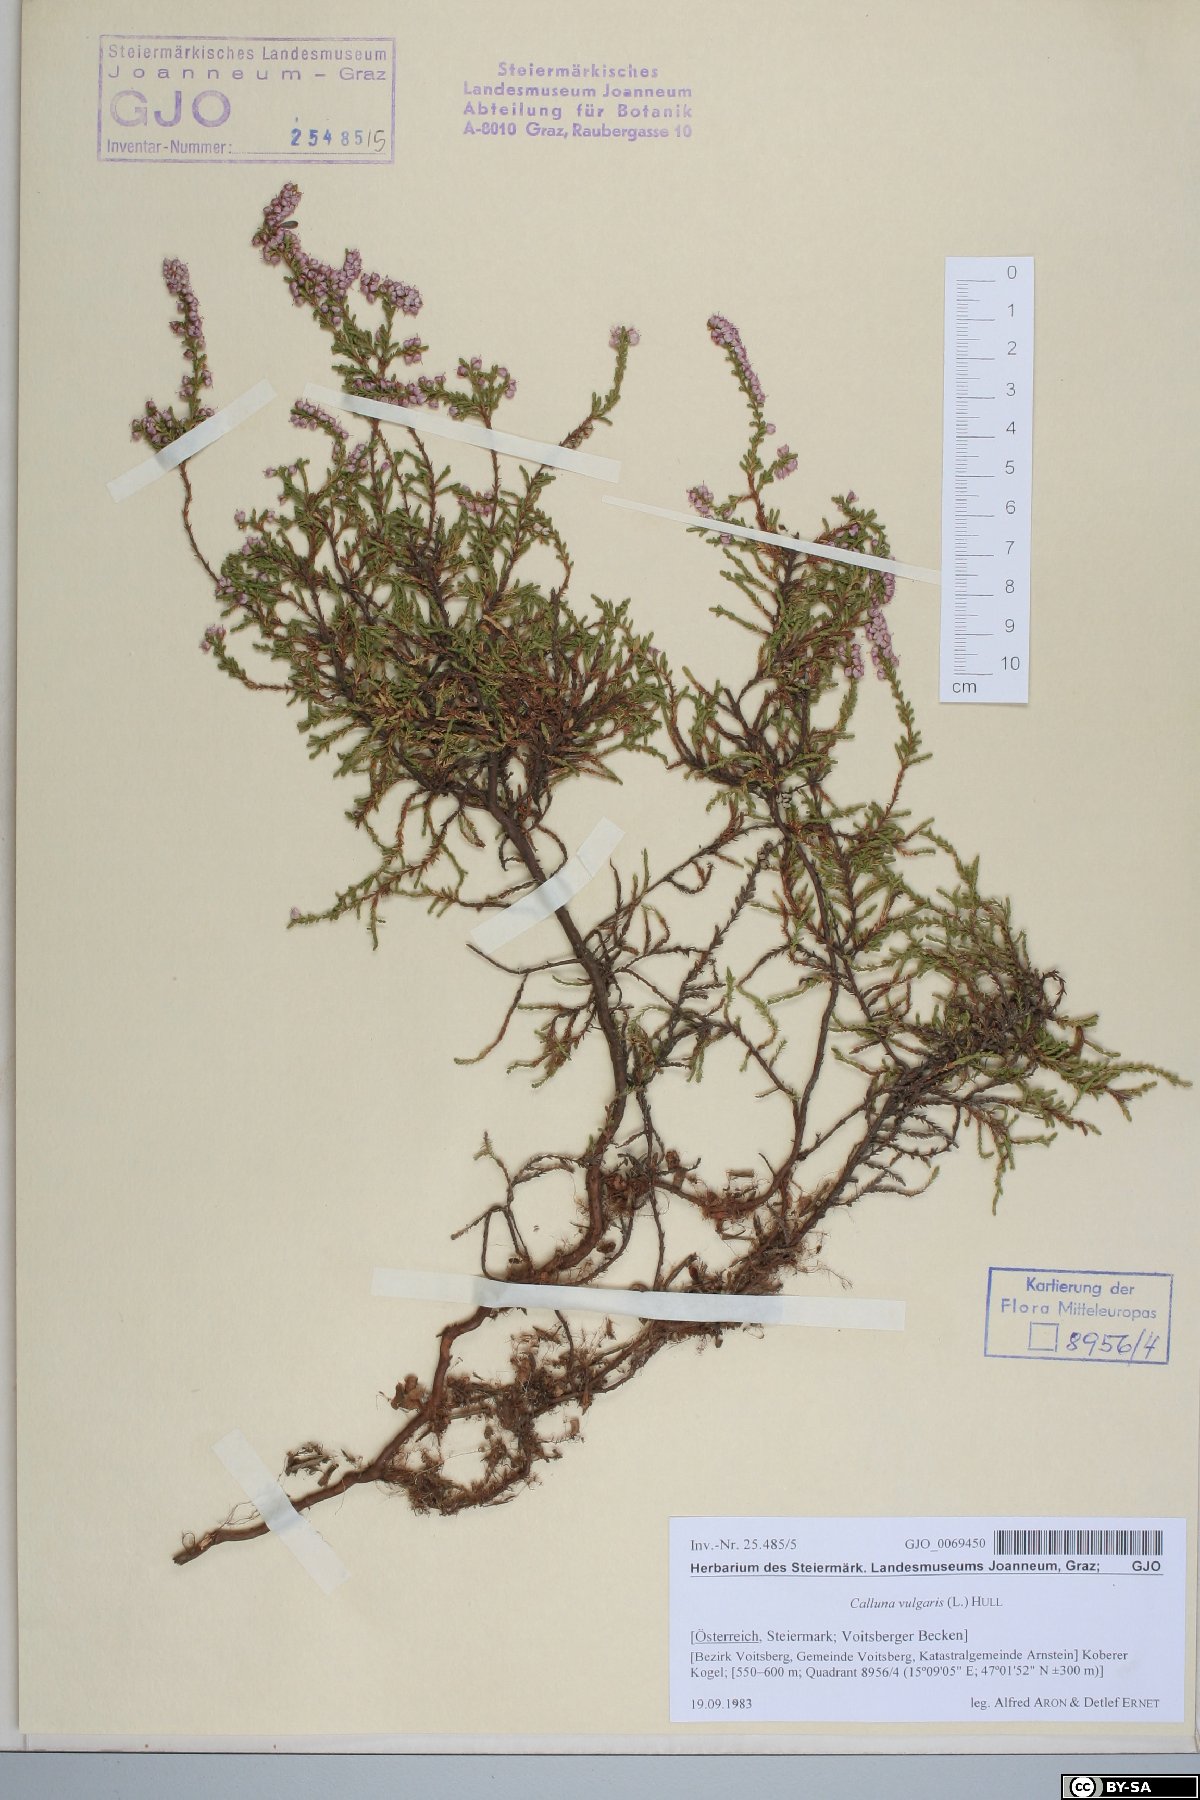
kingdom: Plantae
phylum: Tracheophyta
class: Magnoliopsida
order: Ericales
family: Ericaceae
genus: Calluna
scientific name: Calluna vulgaris
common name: Heather
